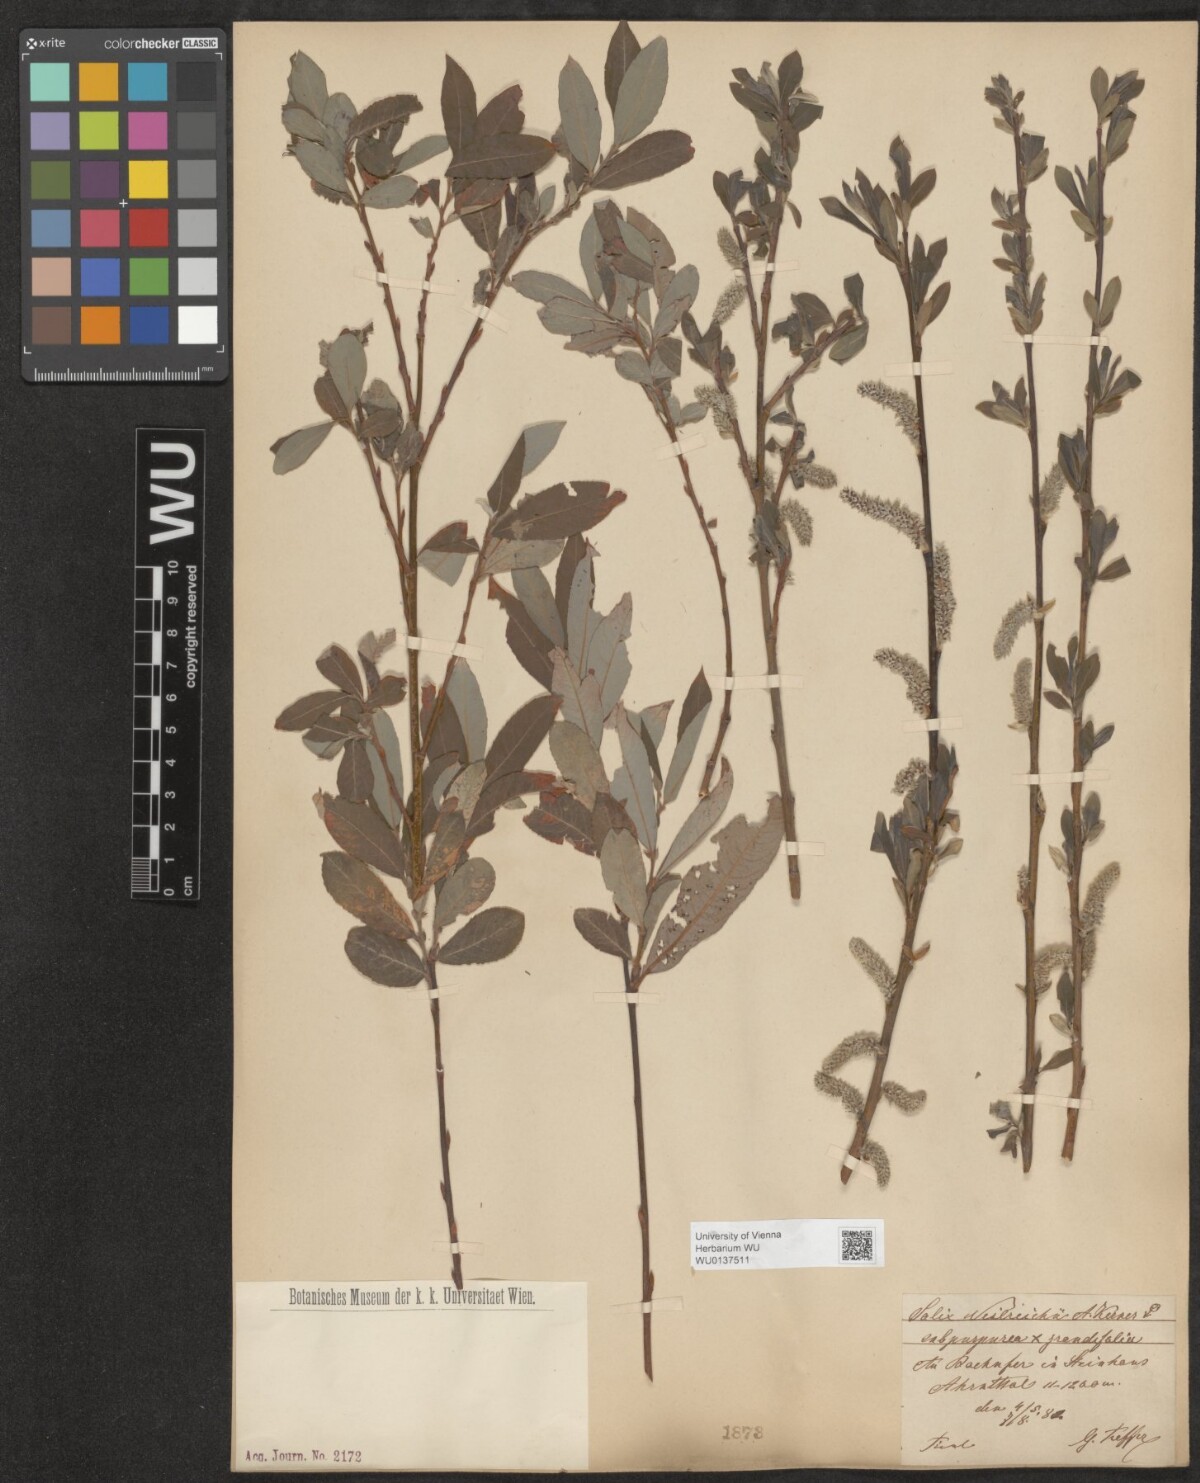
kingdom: Plantae
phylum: Tracheophyta
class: Magnoliopsida
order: Malpighiales
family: Salicaceae
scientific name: Salicaceae
